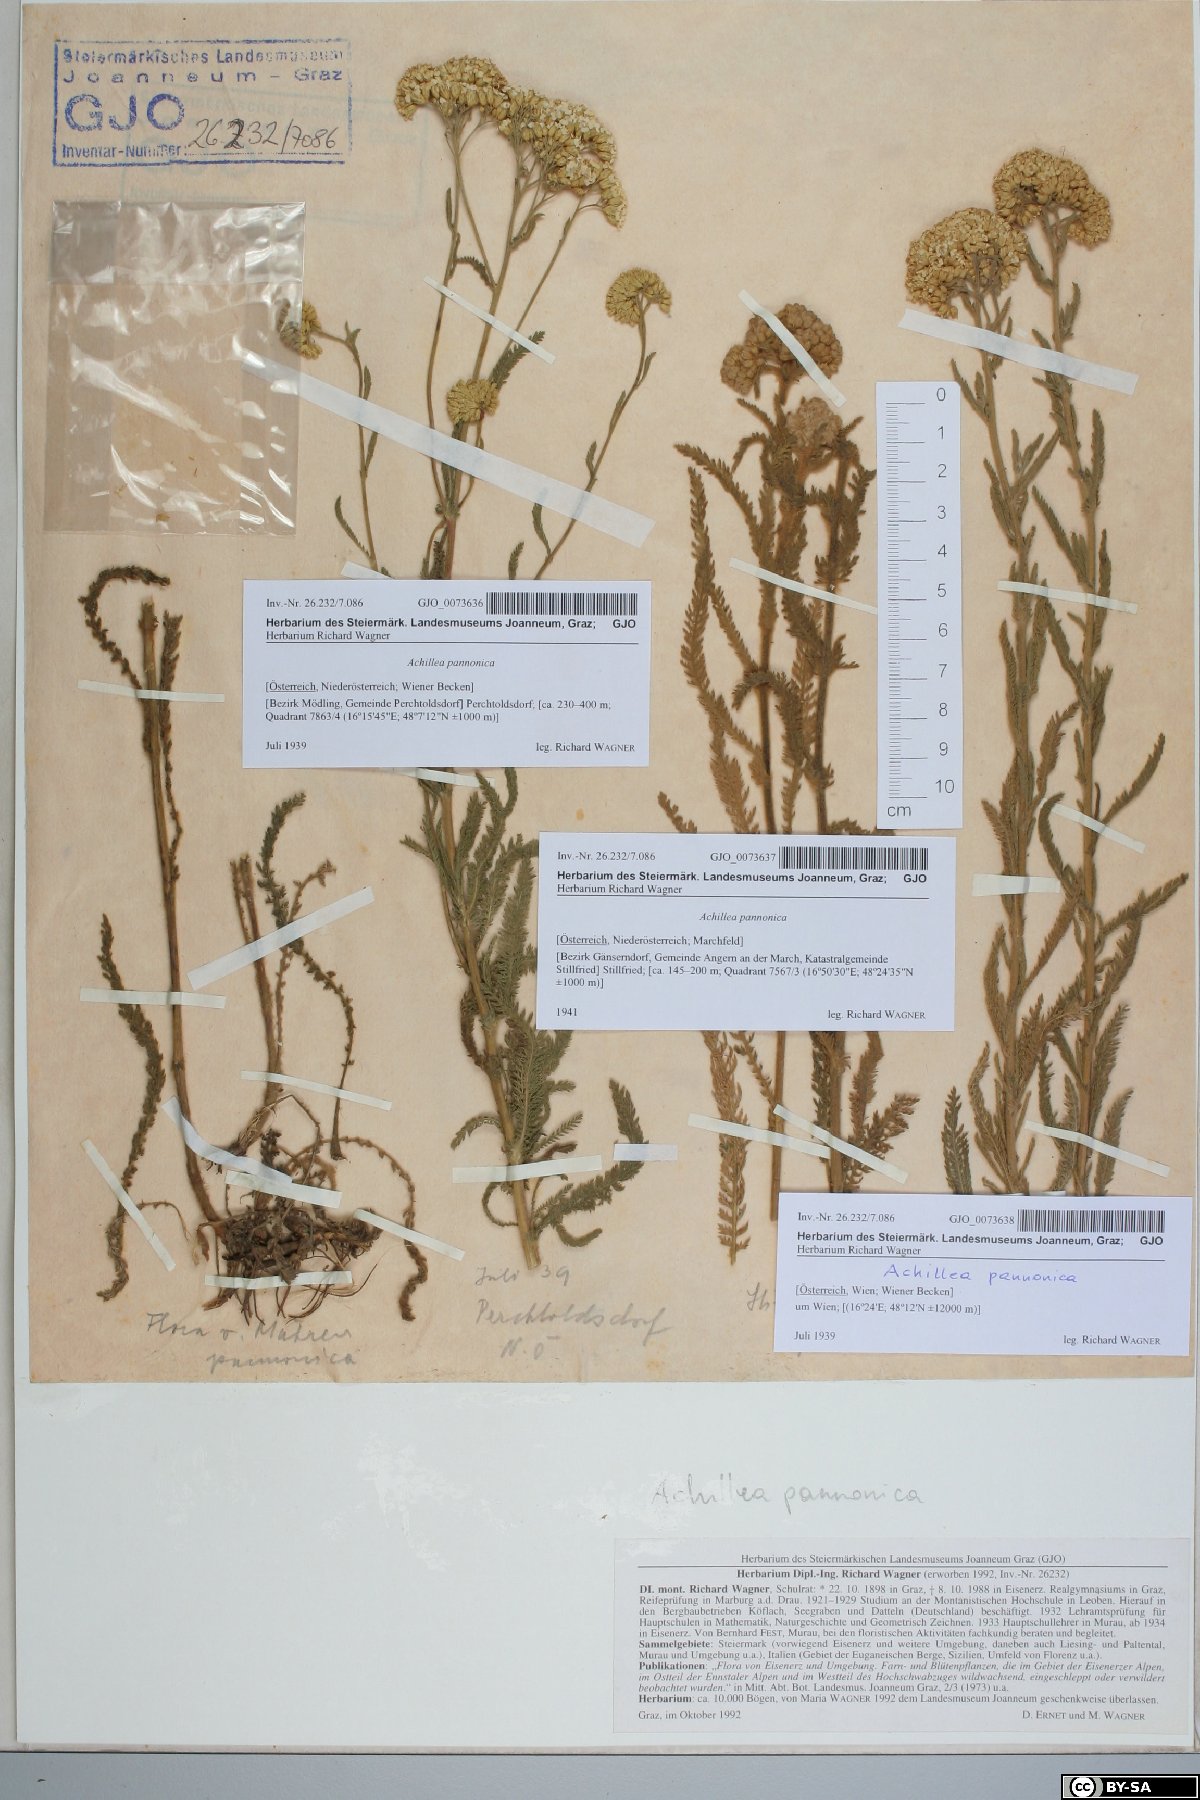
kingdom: Plantae
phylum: Tracheophyta
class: Magnoliopsida
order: Asterales
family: Asteraceae
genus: Achillea
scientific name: Achillea pannonica
